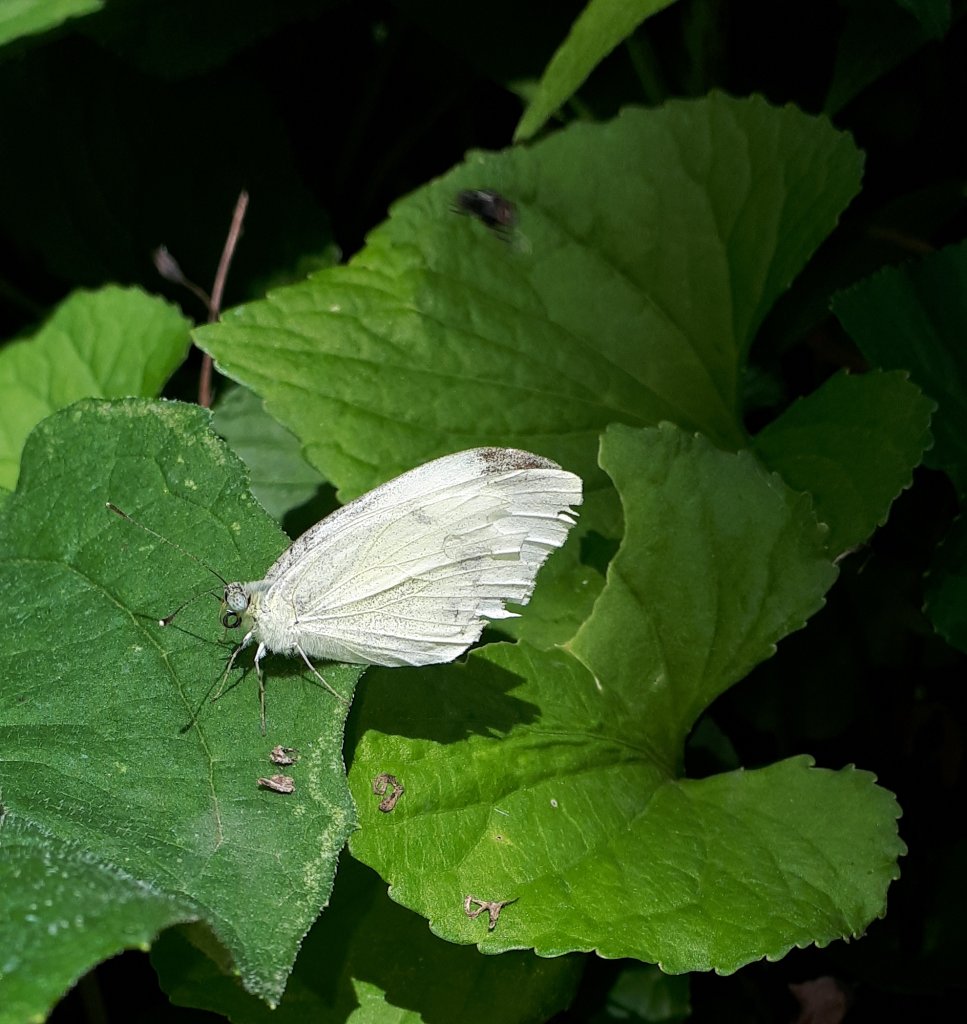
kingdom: Animalia
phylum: Arthropoda
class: Insecta
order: Lepidoptera
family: Pieridae
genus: Pieris
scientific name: Pieris rapae
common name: Cabbage White
